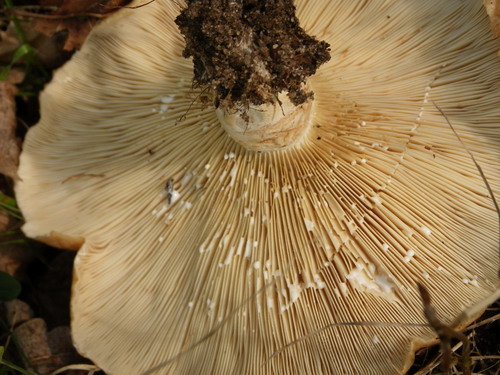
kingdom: Fungi
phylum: Basidiomycota
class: Agaricomycetes
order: Russulales
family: Russulaceae
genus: Lactarius
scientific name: Lactarius zonarius
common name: zoneret mælkehat
